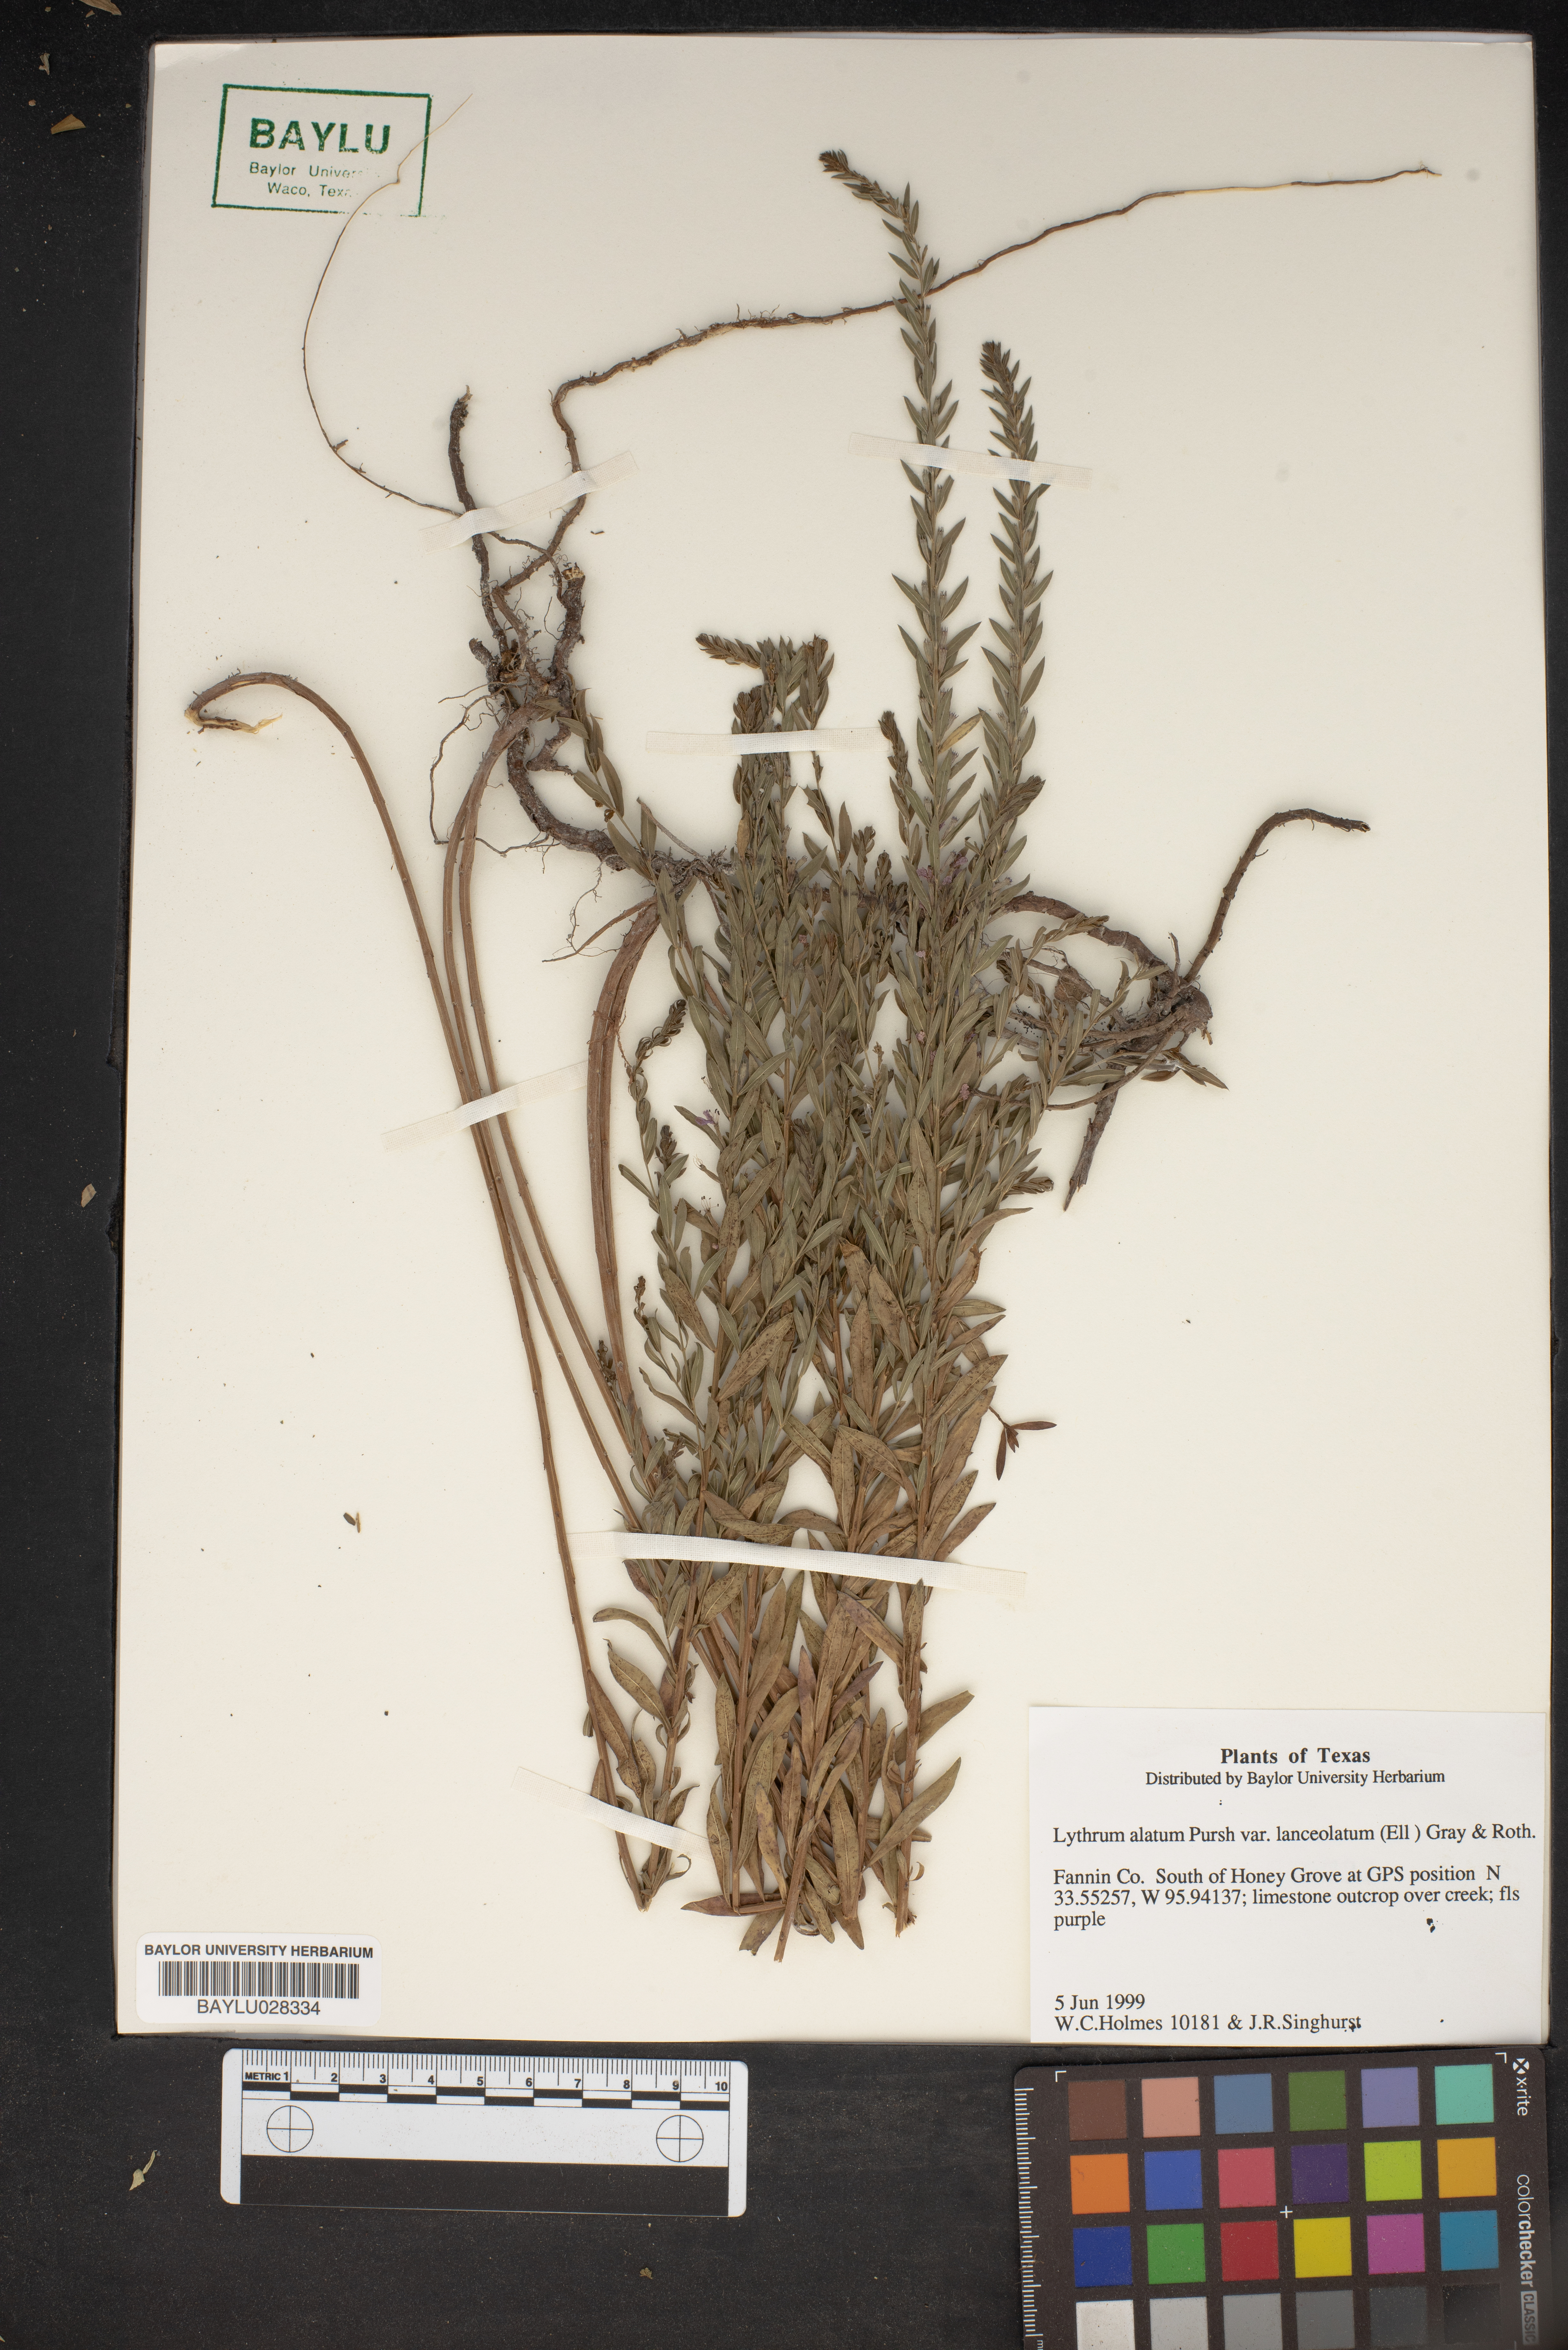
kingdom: Plantae
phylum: Tracheophyta
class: Magnoliopsida
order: Myrtales
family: Lythraceae
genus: Lythrum
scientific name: Lythrum alatum
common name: Winged loosestrife
